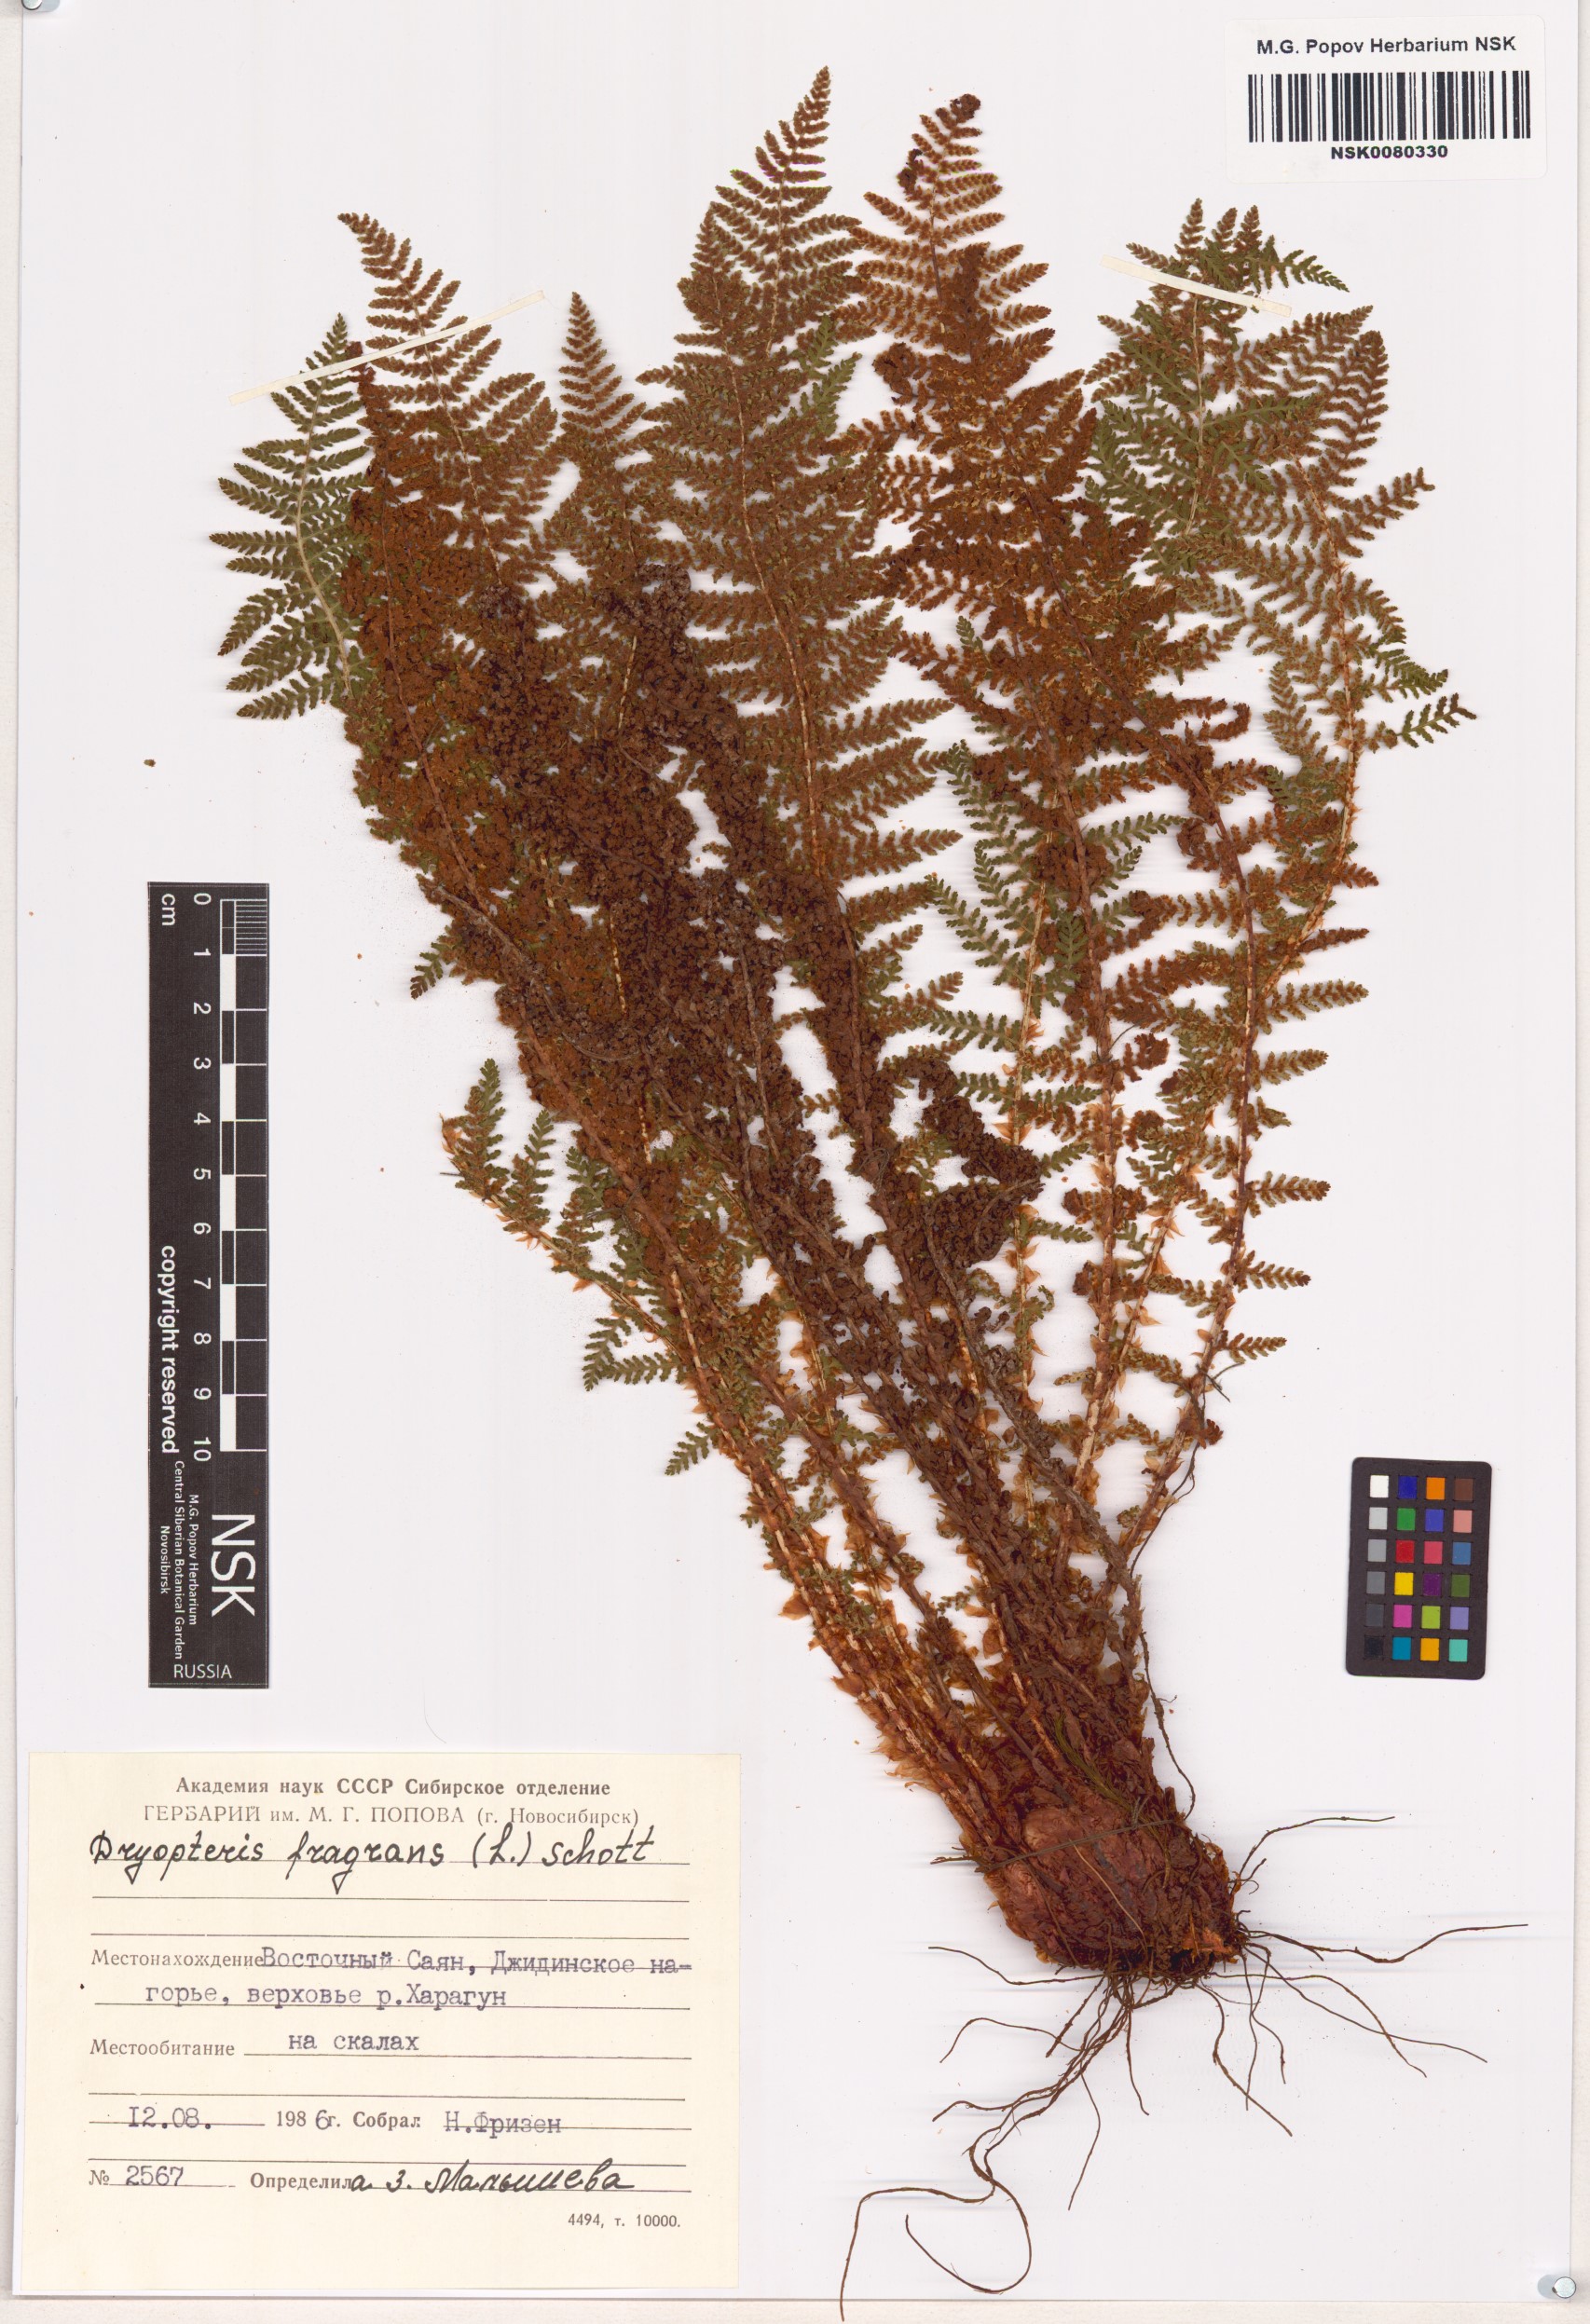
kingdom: Plantae
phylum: Tracheophyta
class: Polypodiopsida
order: Polypodiales
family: Dryopteridaceae
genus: Dryopteris
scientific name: Dryopteris fragrans
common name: Fragrant wood fern
